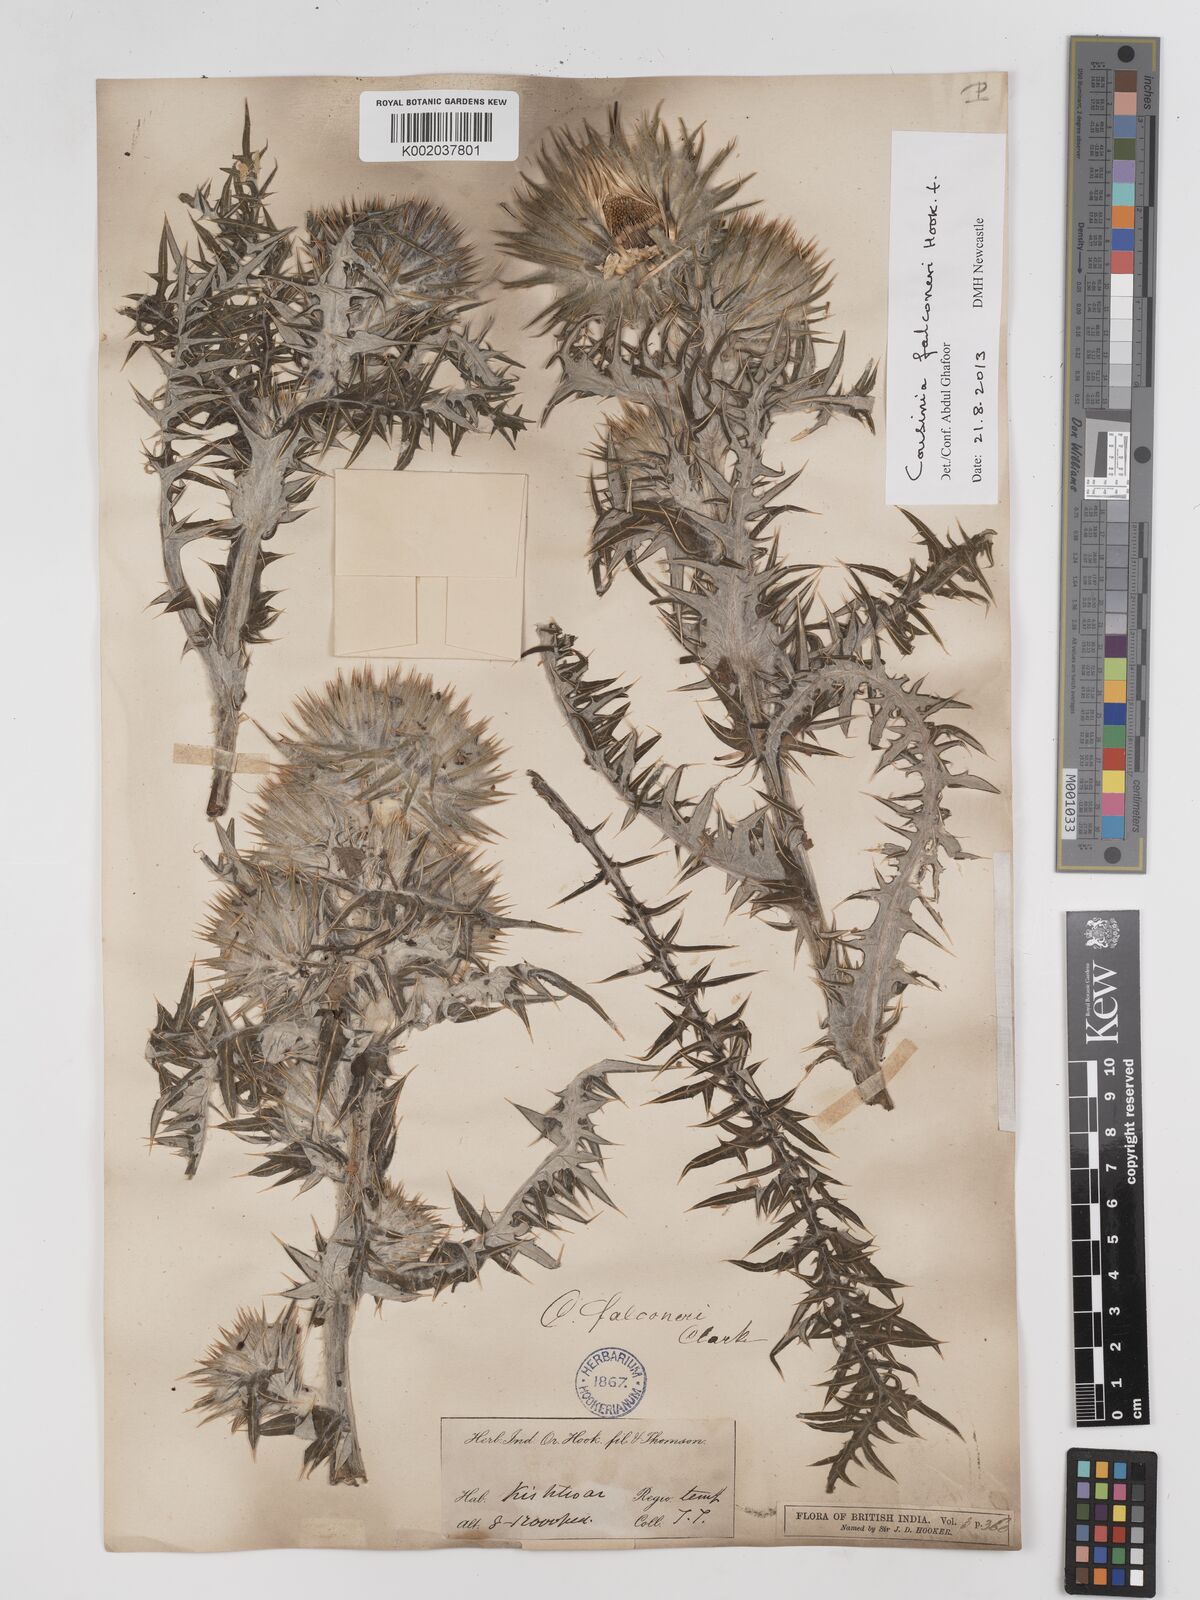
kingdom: Plantae
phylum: Tracheophyta
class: Magnoliopsida
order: Asterales
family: Asteraceae
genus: Cousinia
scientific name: Cousinia
